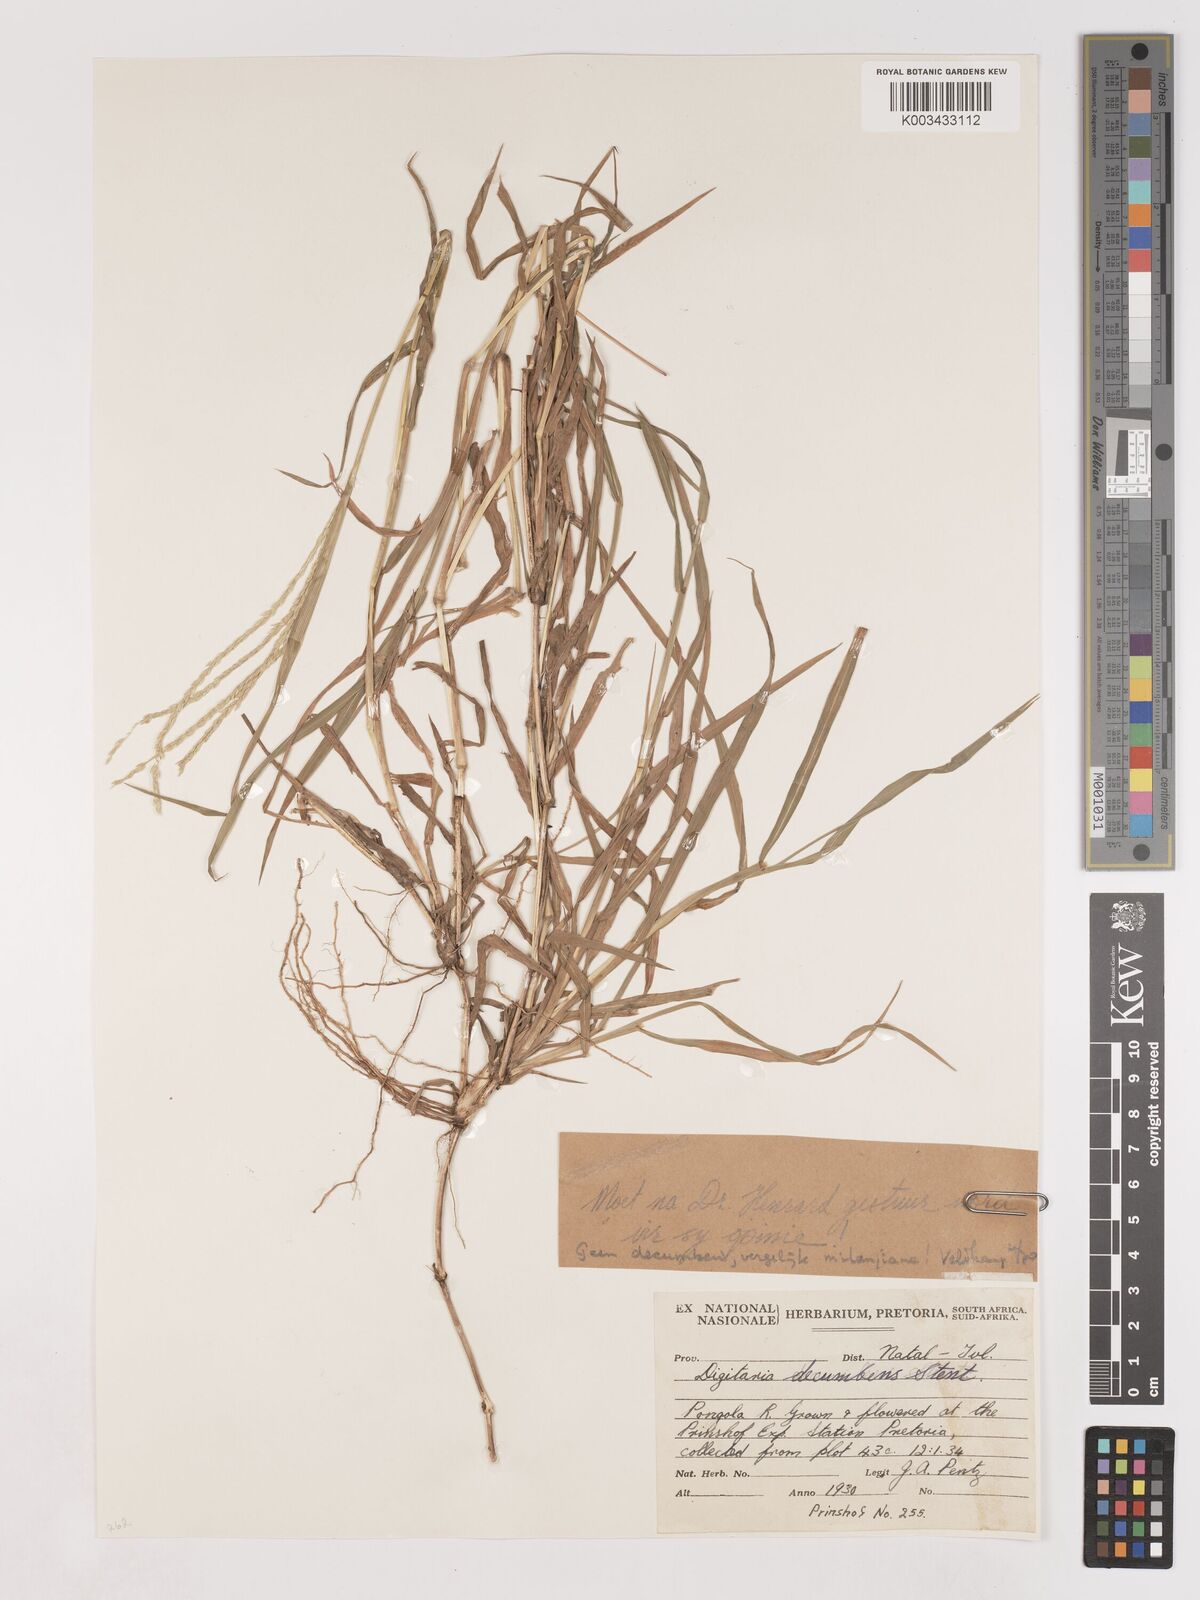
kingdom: Plantae
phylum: Tracheophyta
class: Liliopsida
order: Poales
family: Poaceae
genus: Digitaria
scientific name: Digitaria milanjiana
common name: Madagascar crabgrass
